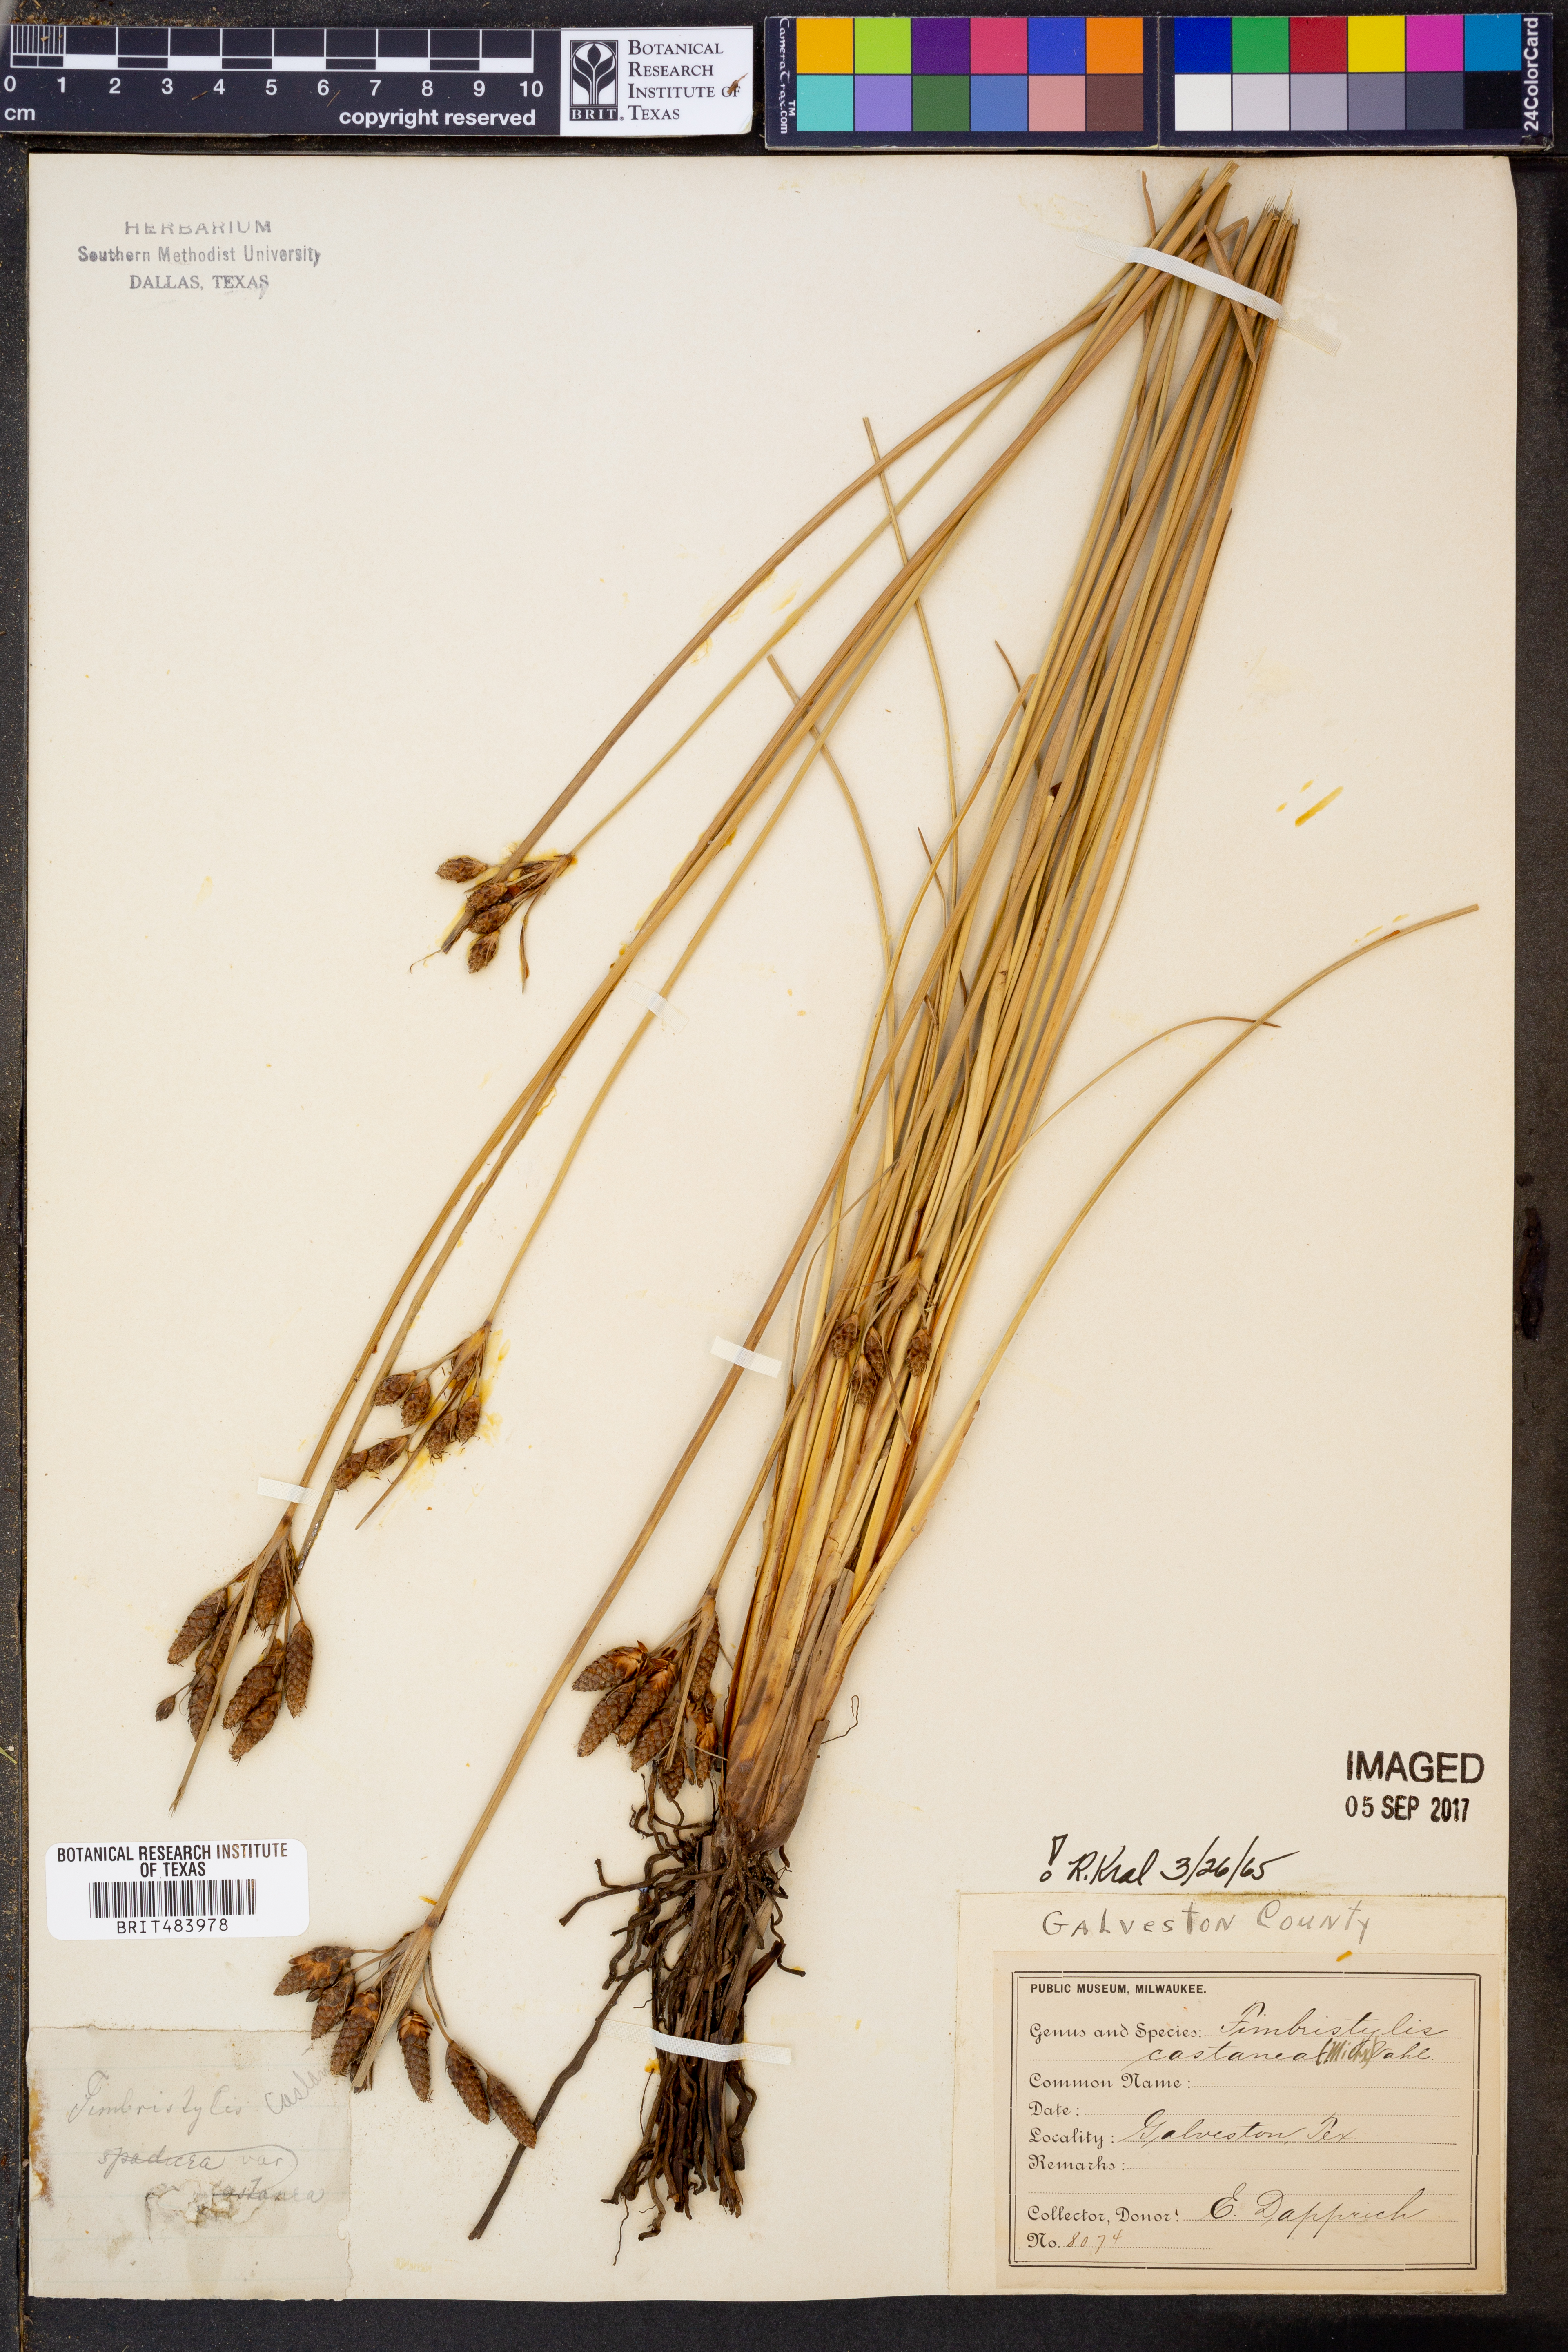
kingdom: Plantae
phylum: Tracheophyta
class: Liliopsida
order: Poales
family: Cyperaceae
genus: Fimbristylis
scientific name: Fimbristylis spadicea
